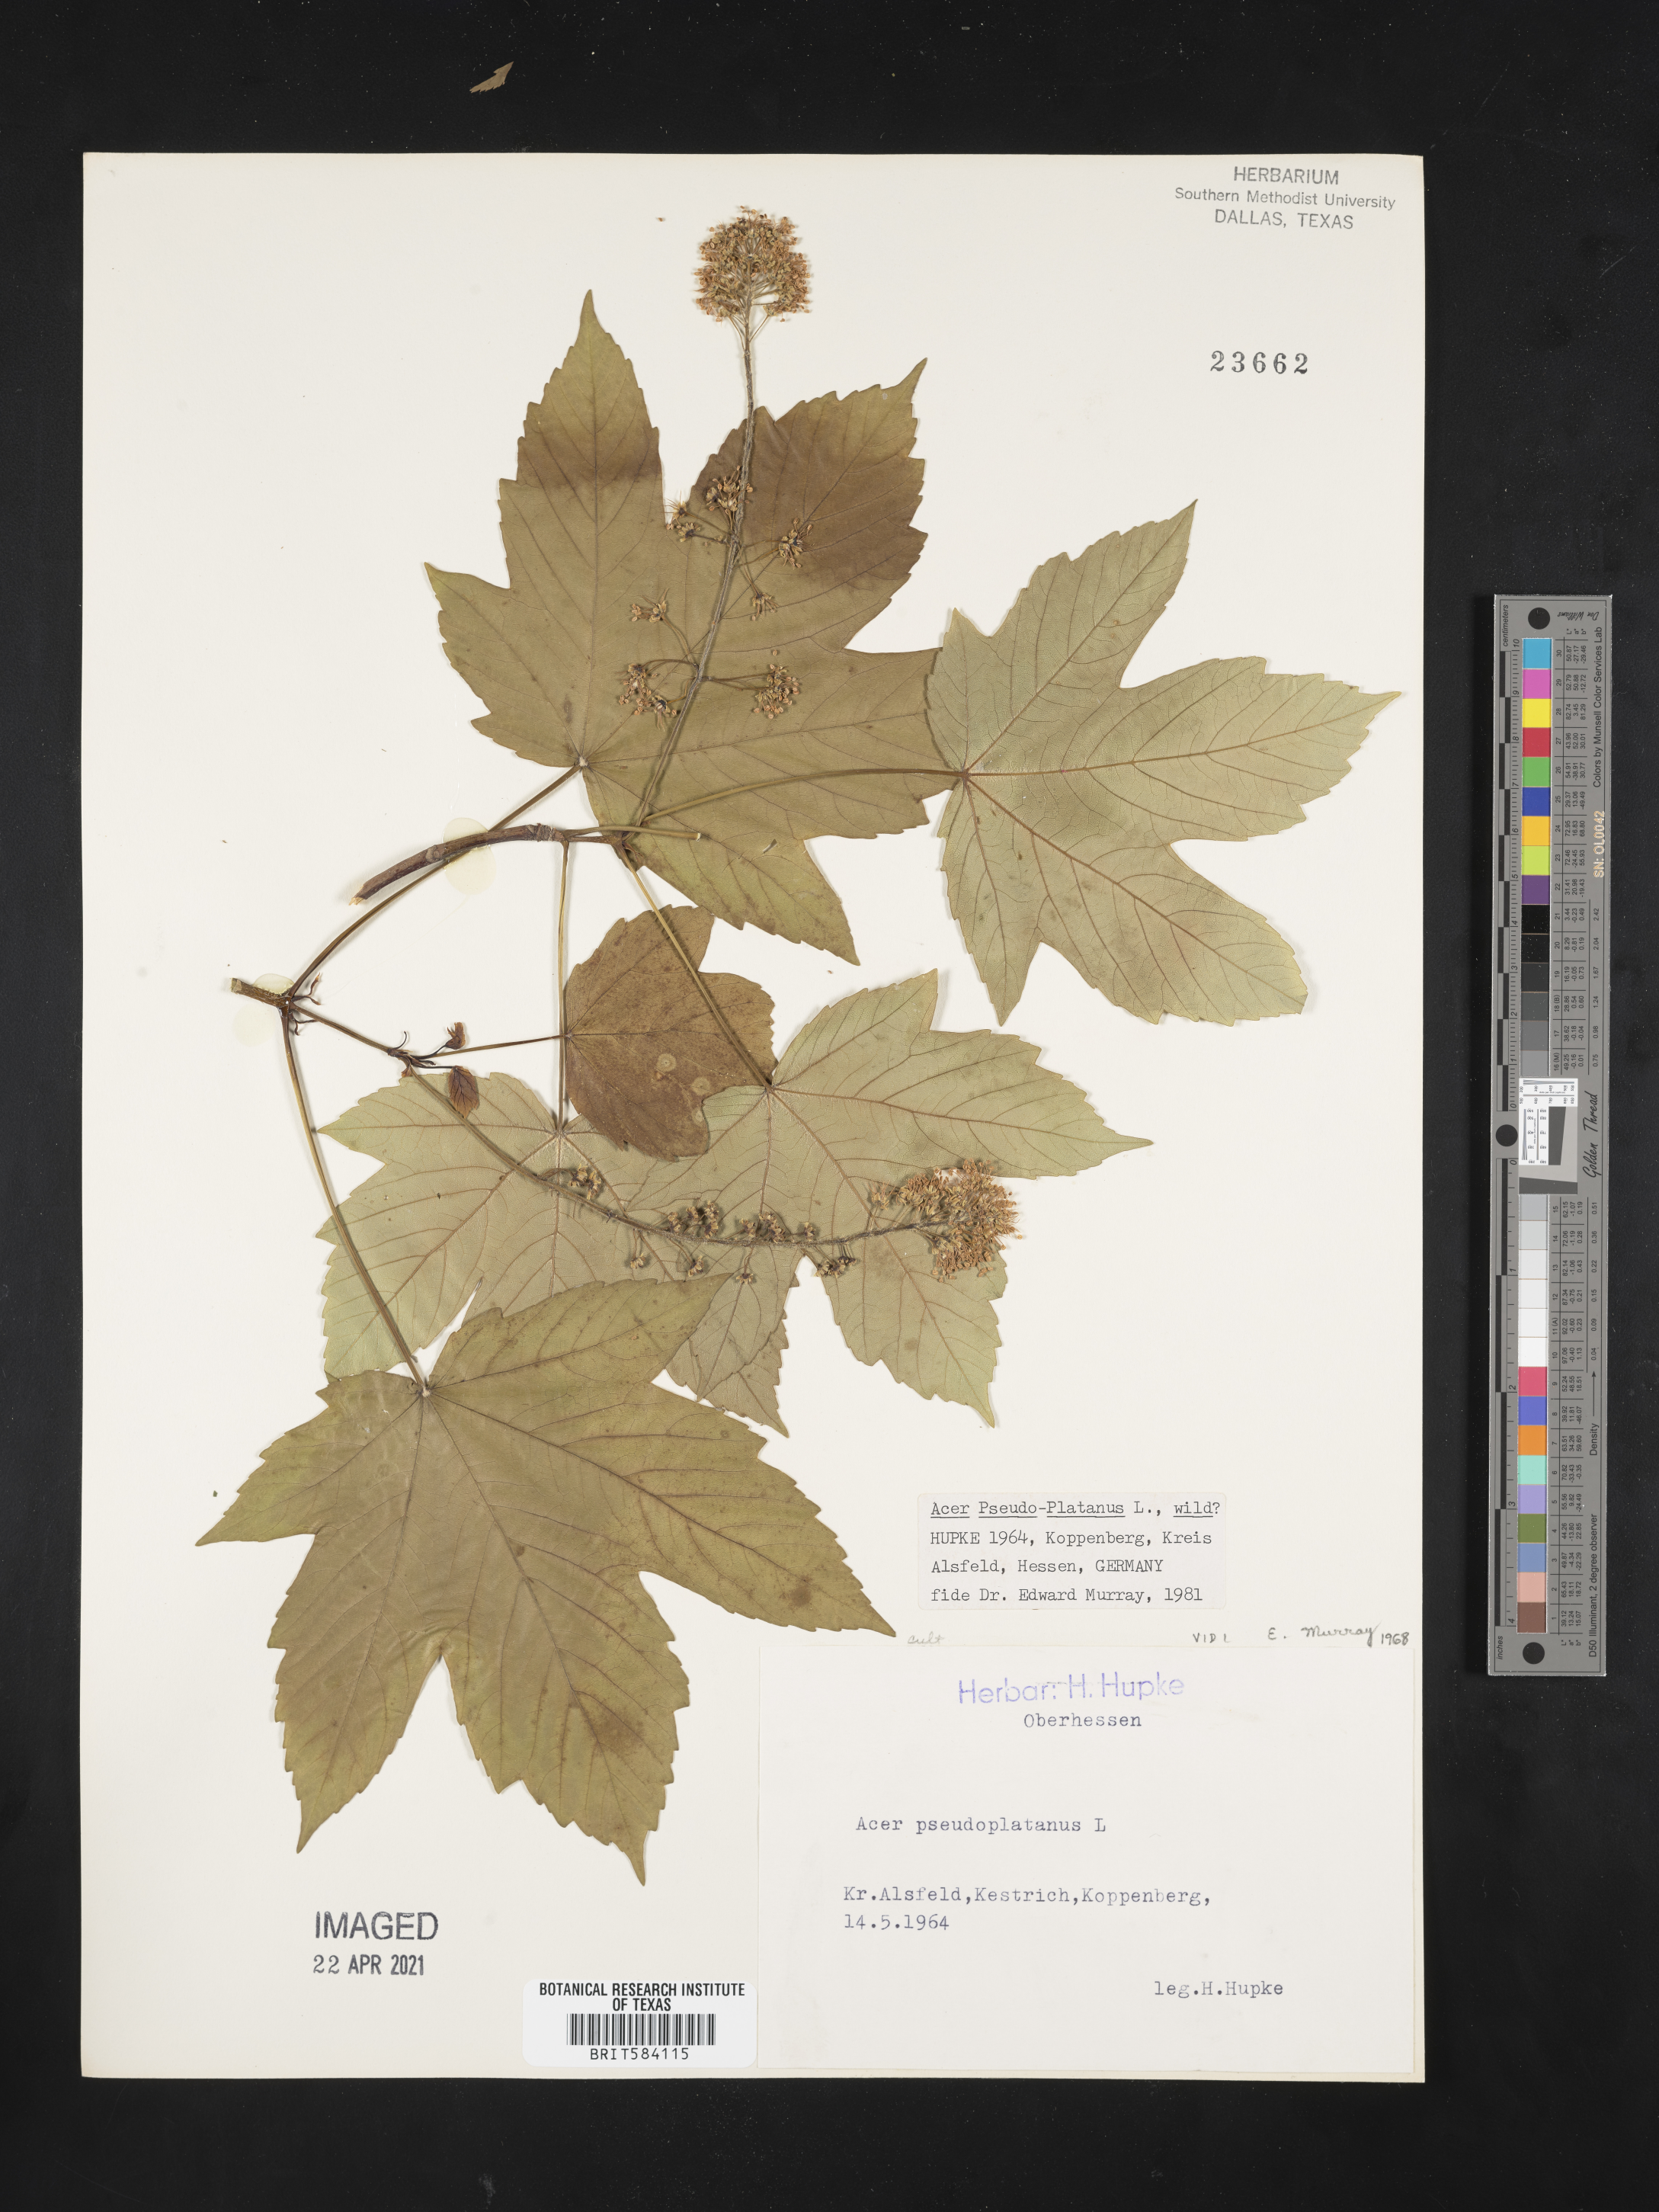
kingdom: Plantae
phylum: Tracheophyta
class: Magnoliopsida
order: Sapindales
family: Sapindaceae
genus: Acer
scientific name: Acer pseudoplatanus
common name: Sycamore
